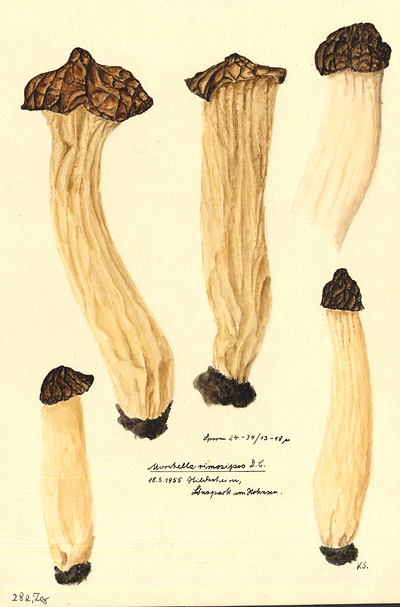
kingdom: Fungi
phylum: Ascomycota
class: Pezizomycetes
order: Pezizales
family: Morchellaceae
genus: Morchella
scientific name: Morchella semilibera
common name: Semifree morel
